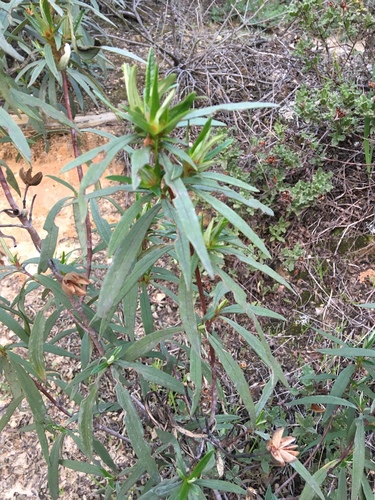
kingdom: Plantae
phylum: Tracheophyta
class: Magnoliopsida
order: Malvales
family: Cistaceae
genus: Cistus
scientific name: Cistus ladanifer
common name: Common gum cistus
